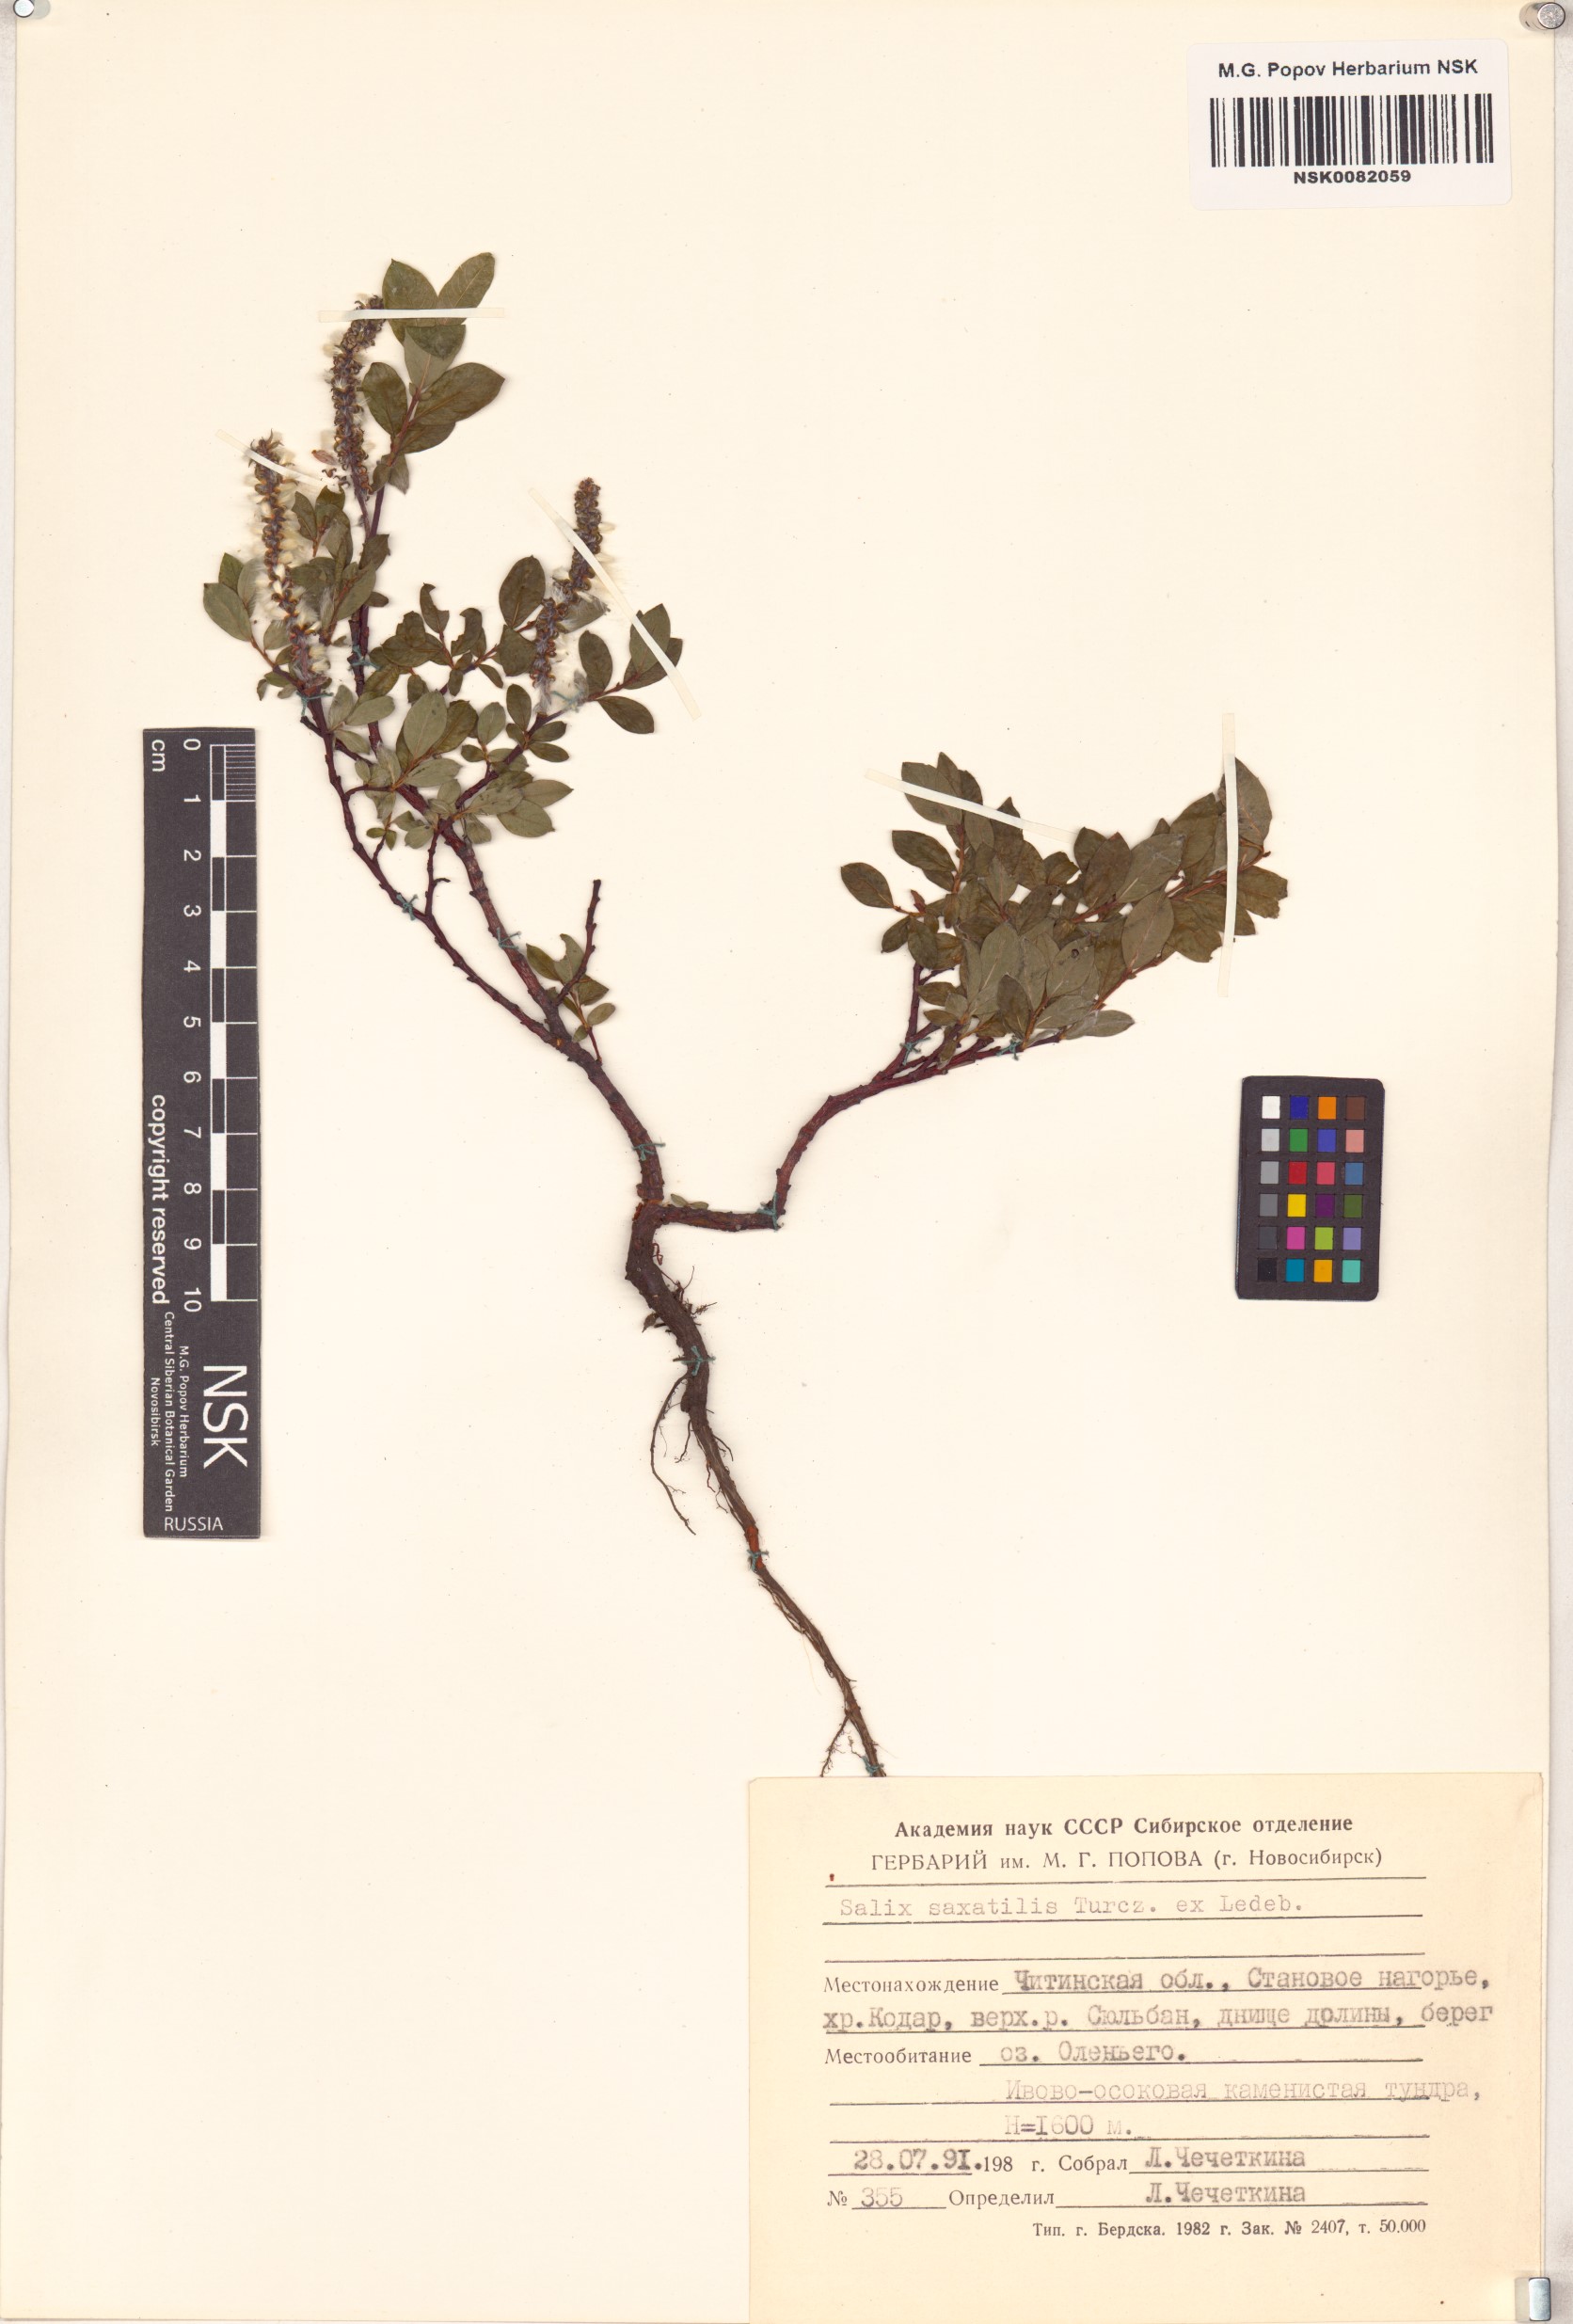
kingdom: Plantae
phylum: Tracheophyta
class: Magnoliopsida
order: Malpighiales
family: Salicaceae
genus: Salix
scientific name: Salix saxatilis
